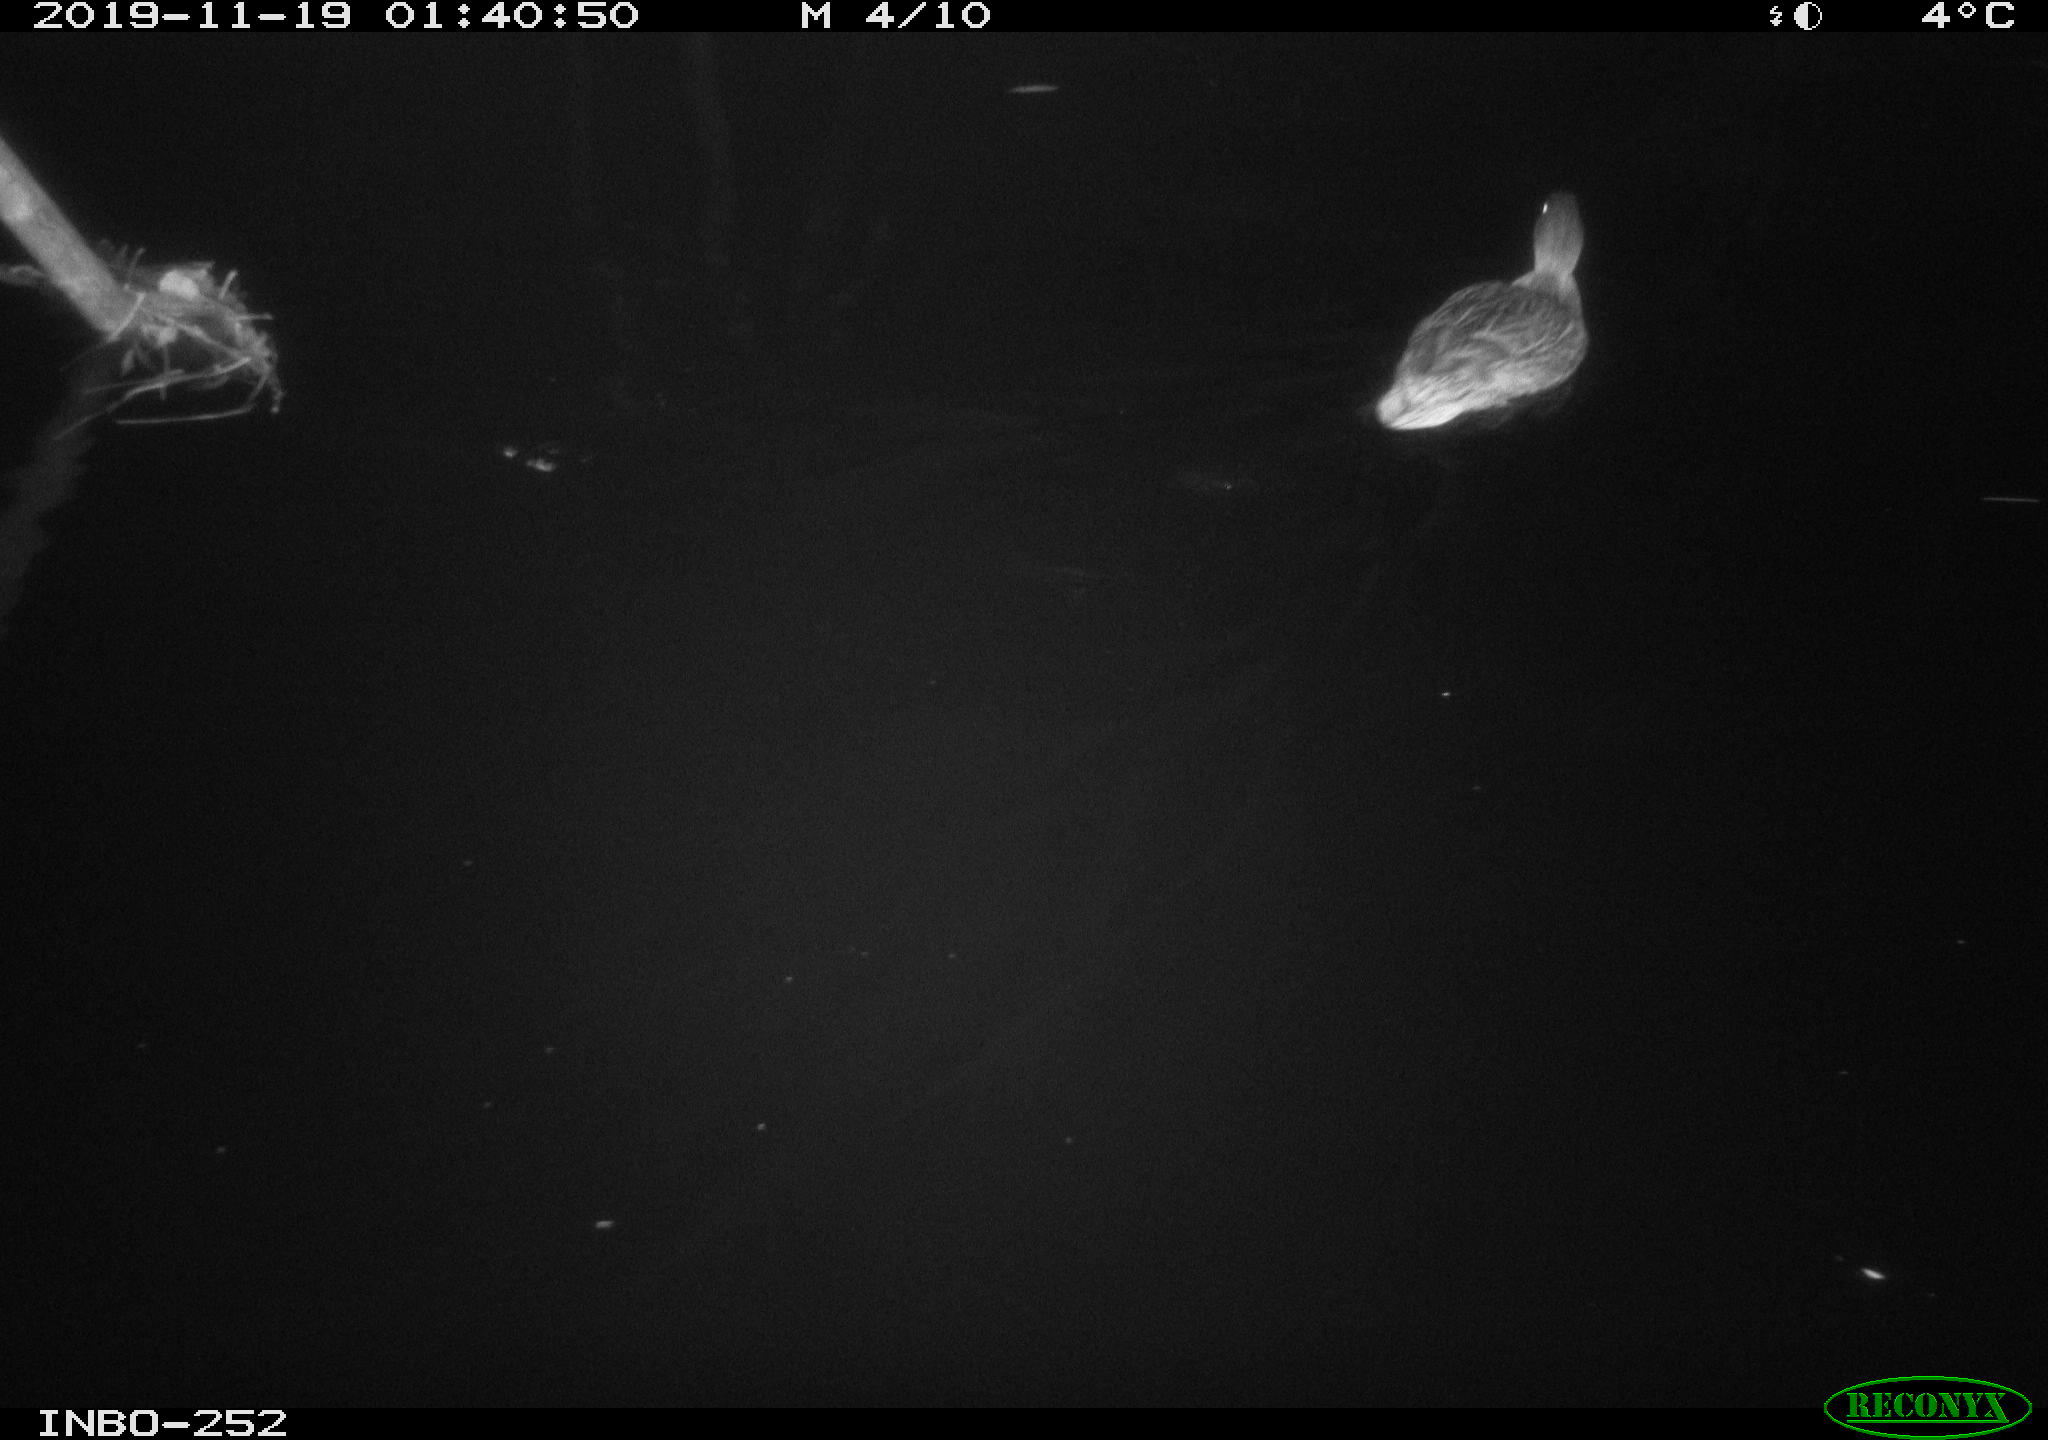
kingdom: Animalia
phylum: Chordata
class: Aves
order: Anseriformes
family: Anatidae
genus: Anas
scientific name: Anas platyrhynchos
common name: Mallard
